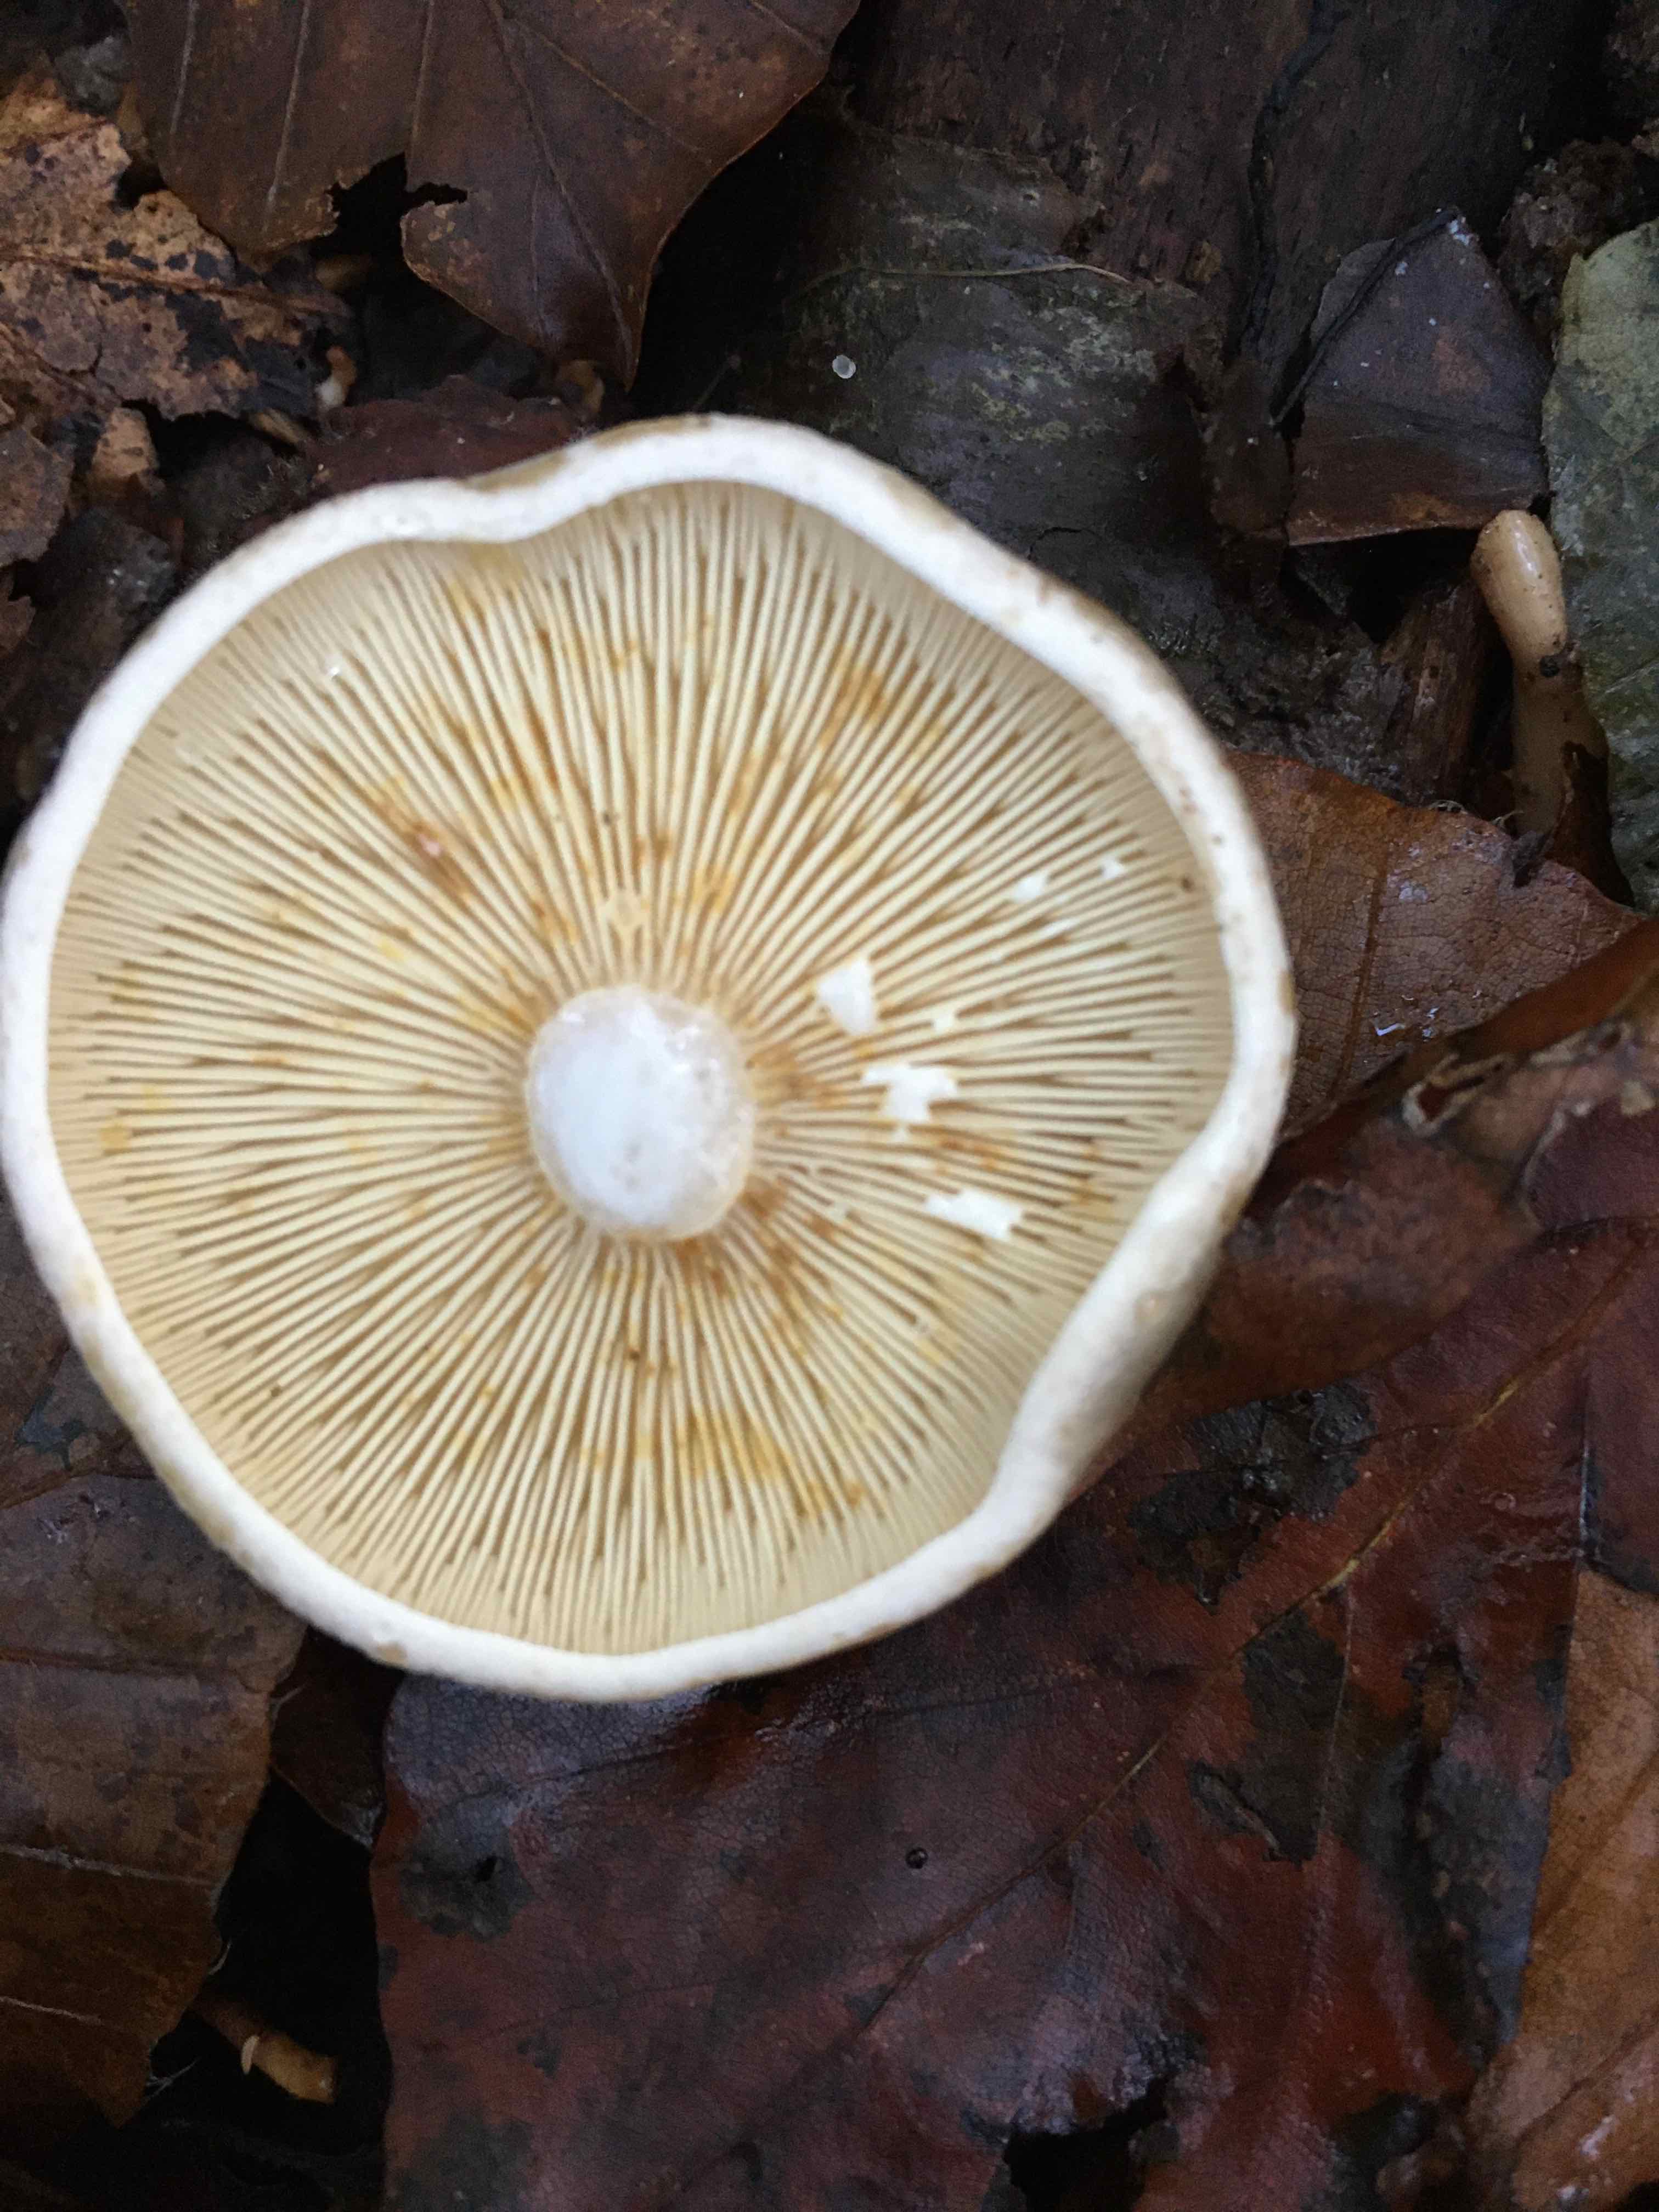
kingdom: Fungi
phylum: Basidiomycota
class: Agaricomycetes
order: Russulales
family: Russulaceae
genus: Lactarius
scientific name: Lactarius fluens
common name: lysrandet mælkehat
